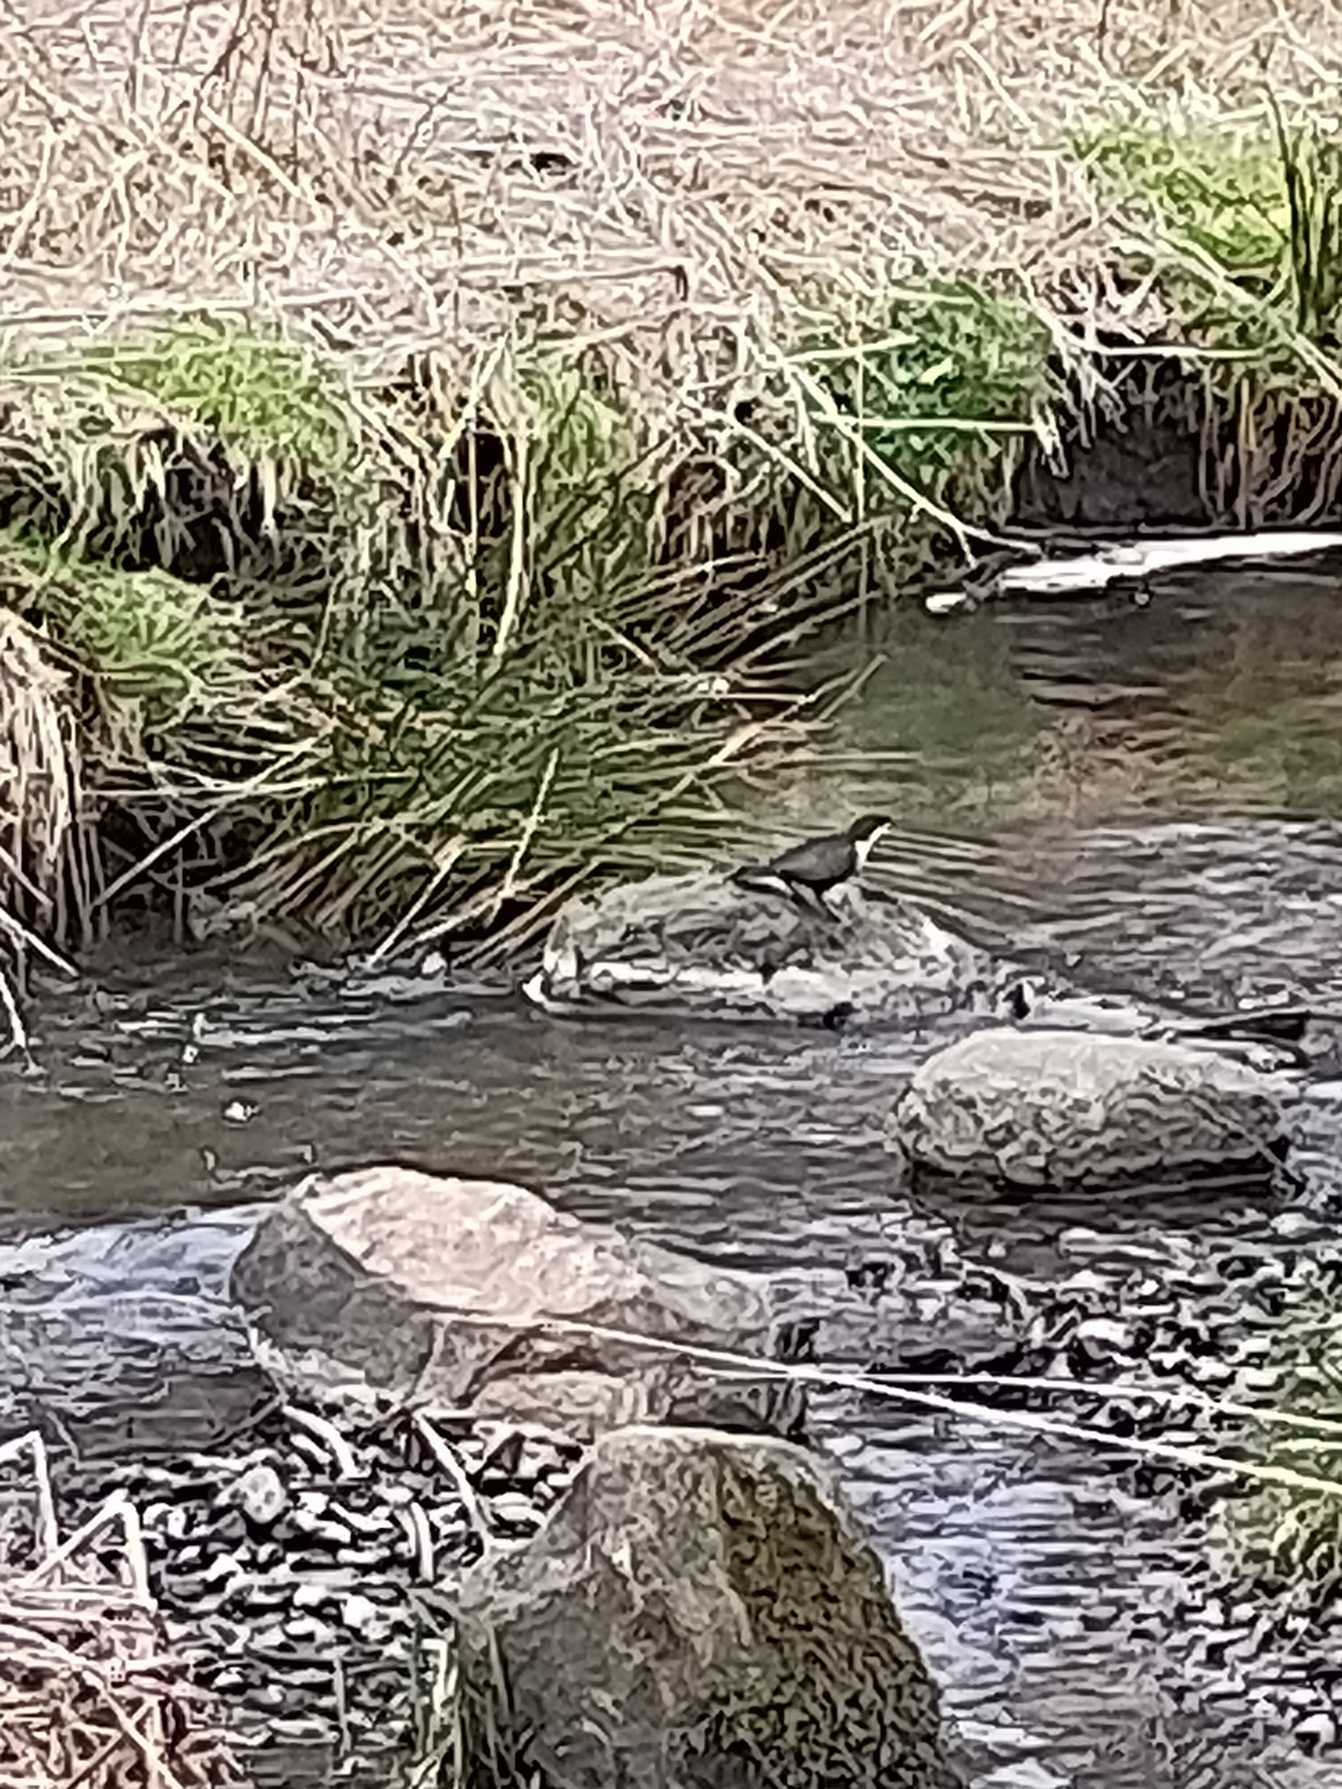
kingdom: Animalia
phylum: Chordata
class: Aves
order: Passeriformes
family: Cinclidae
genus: Cinclus
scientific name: Cinclus cinclus
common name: Vandstær
